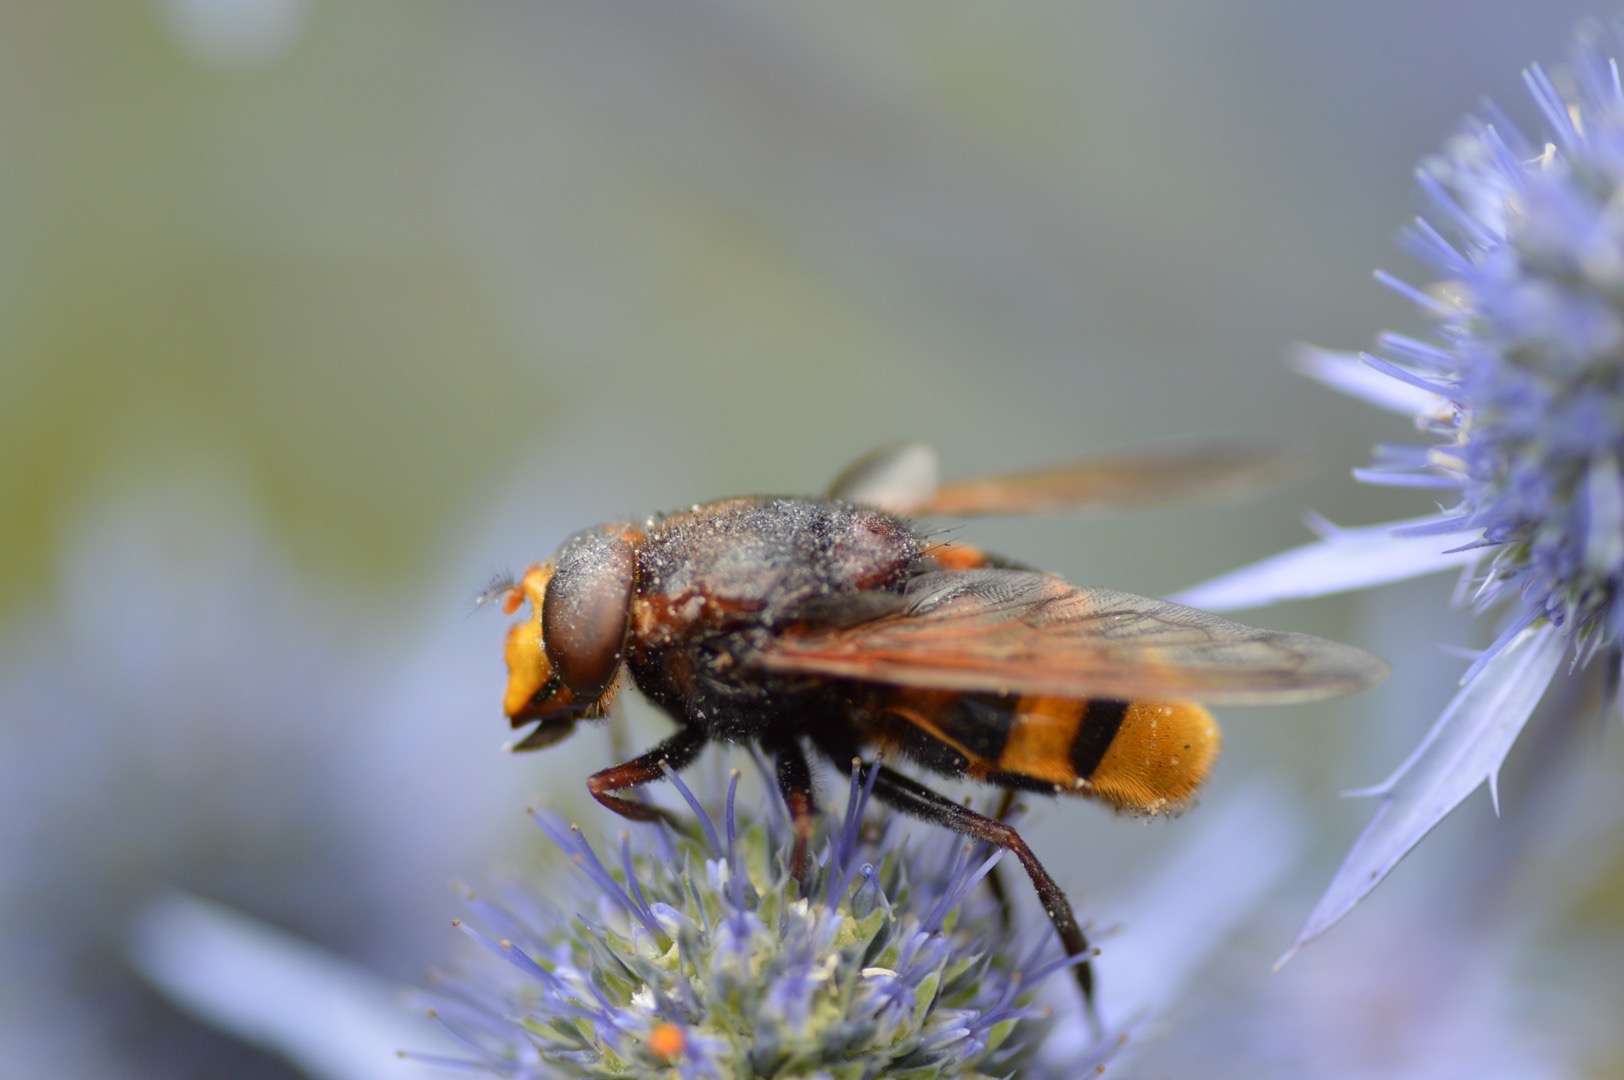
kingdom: Animalia
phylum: Arthropoda
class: Insecta
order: Diptera
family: Syrphidae
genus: Volucella
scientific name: Volucella zonaria
